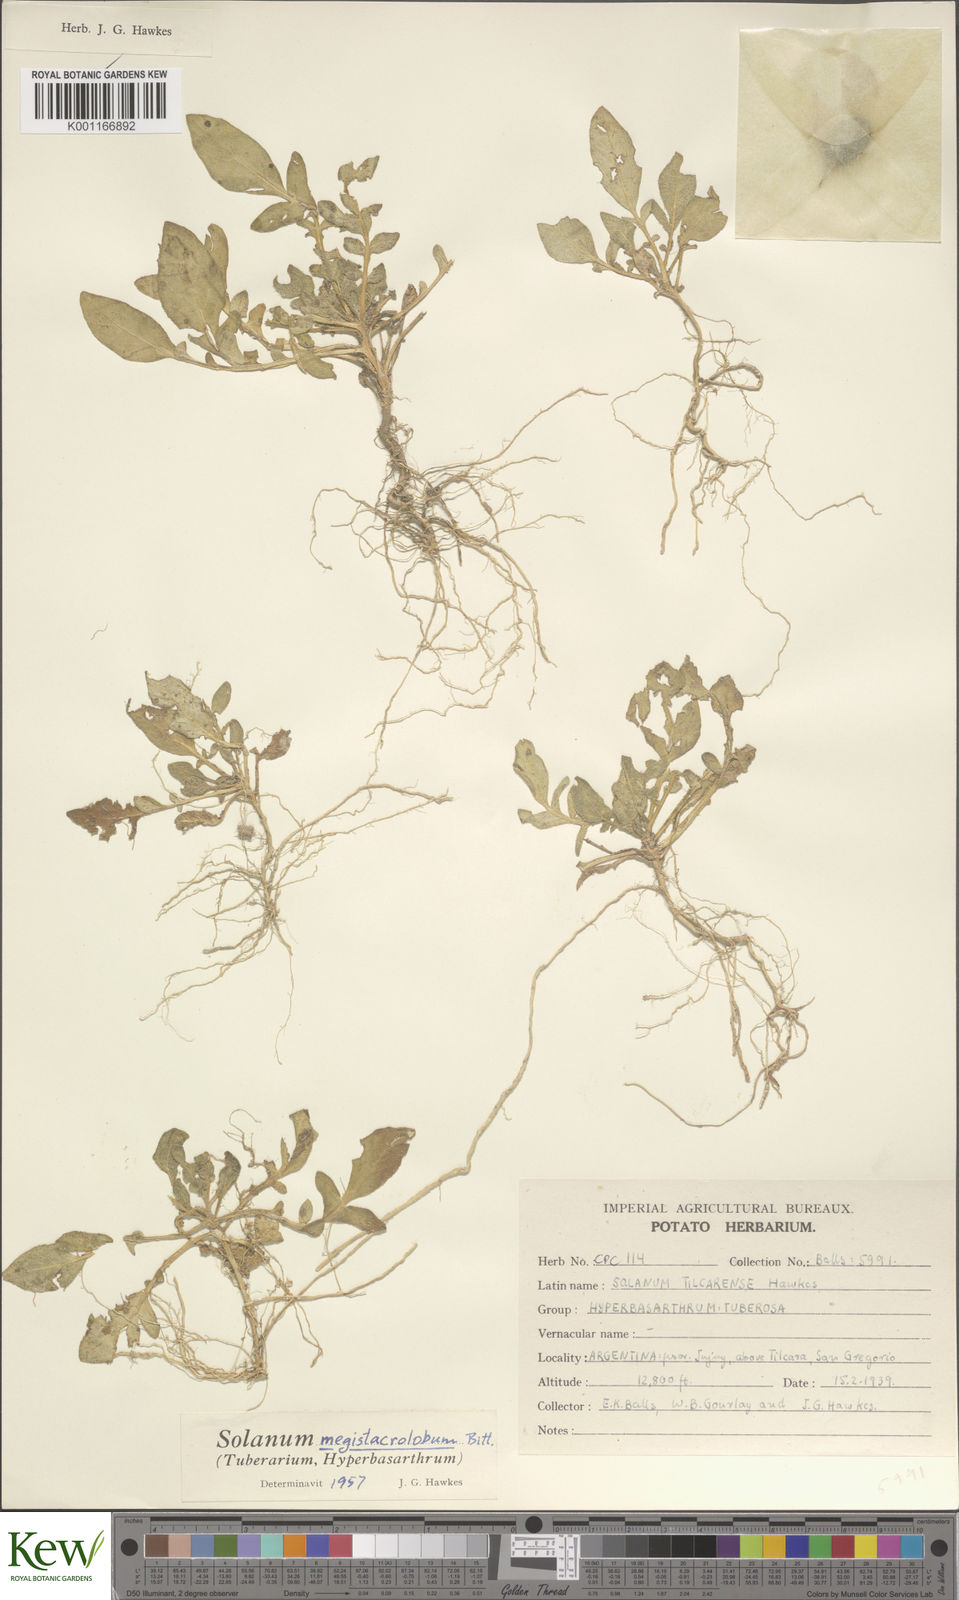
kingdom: Plantae
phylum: Tracheophyta
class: Magnoliopsida
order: Solanales
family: Solanaceae
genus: Solanum
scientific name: Solanum boliviense
